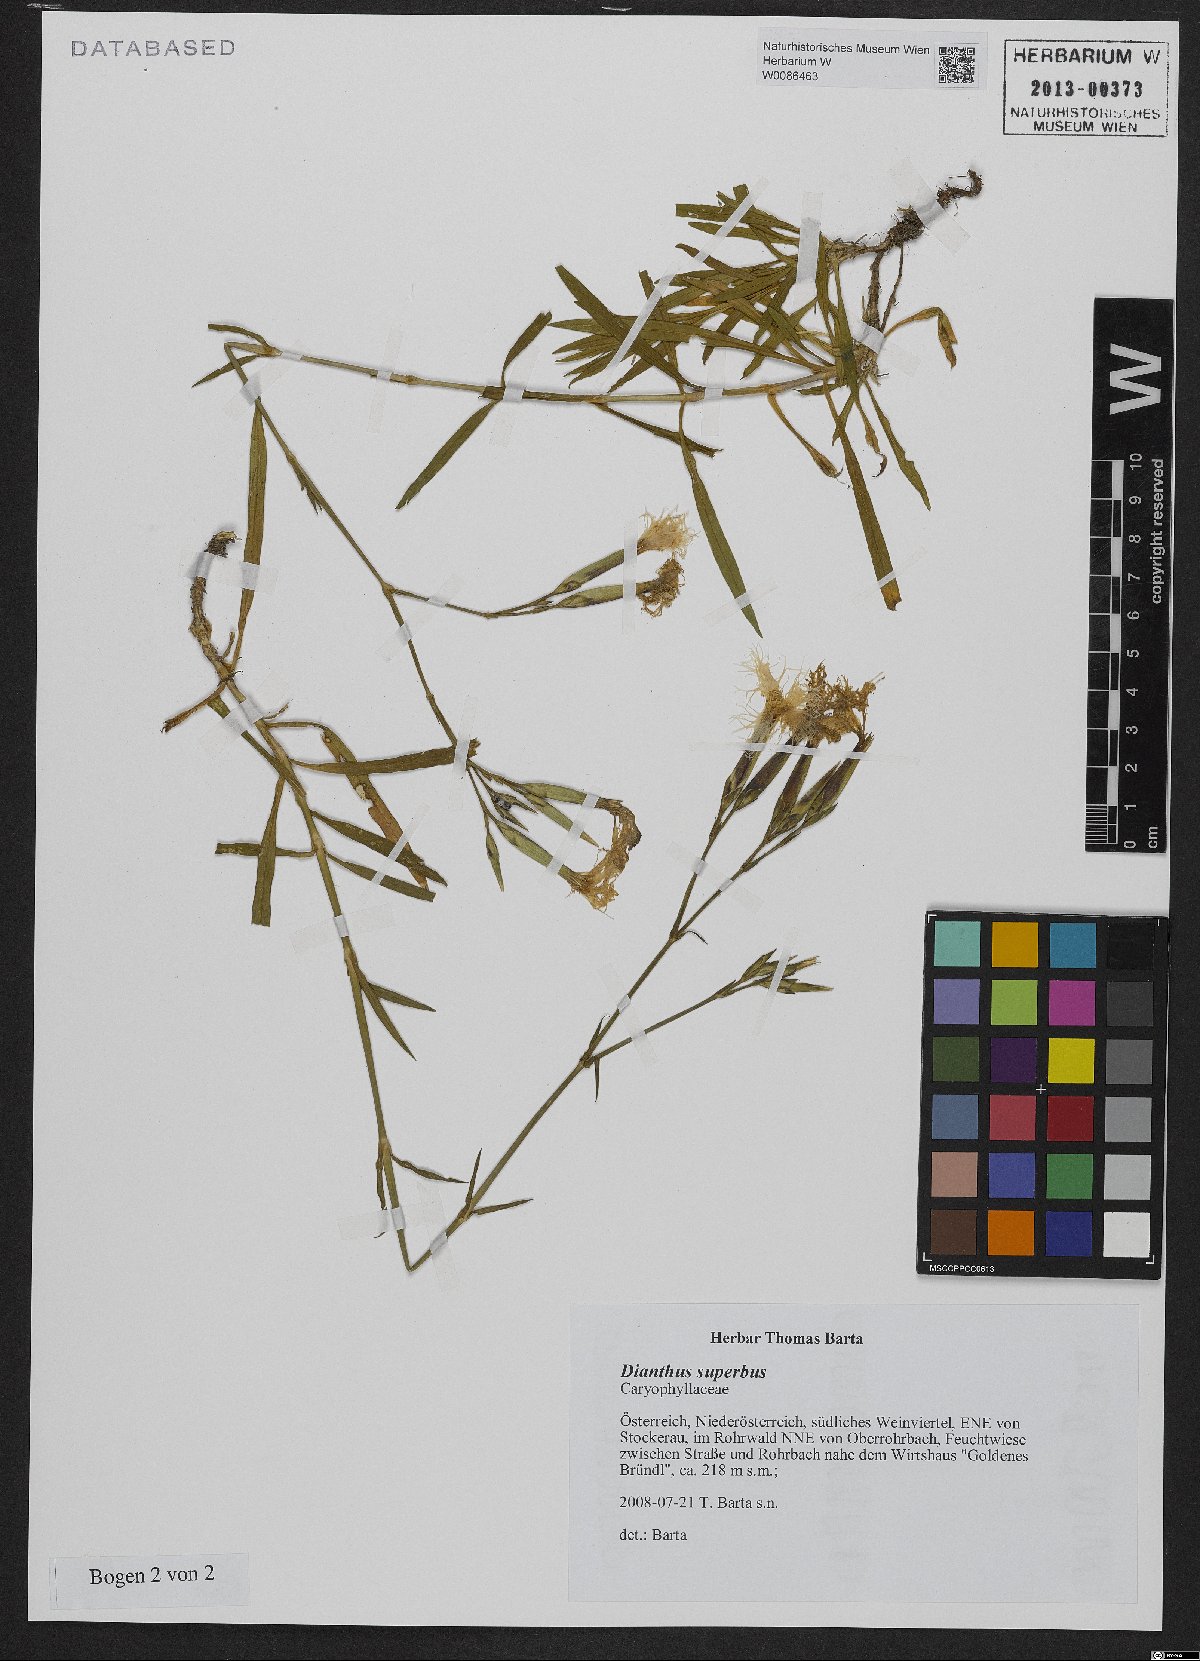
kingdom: Plantae
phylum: Tracheophyta
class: Magnoliopsida
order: Caryophyllales
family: Caryophyllaceae
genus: Dianthus
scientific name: Dianthus superbus
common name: Fringed pink
